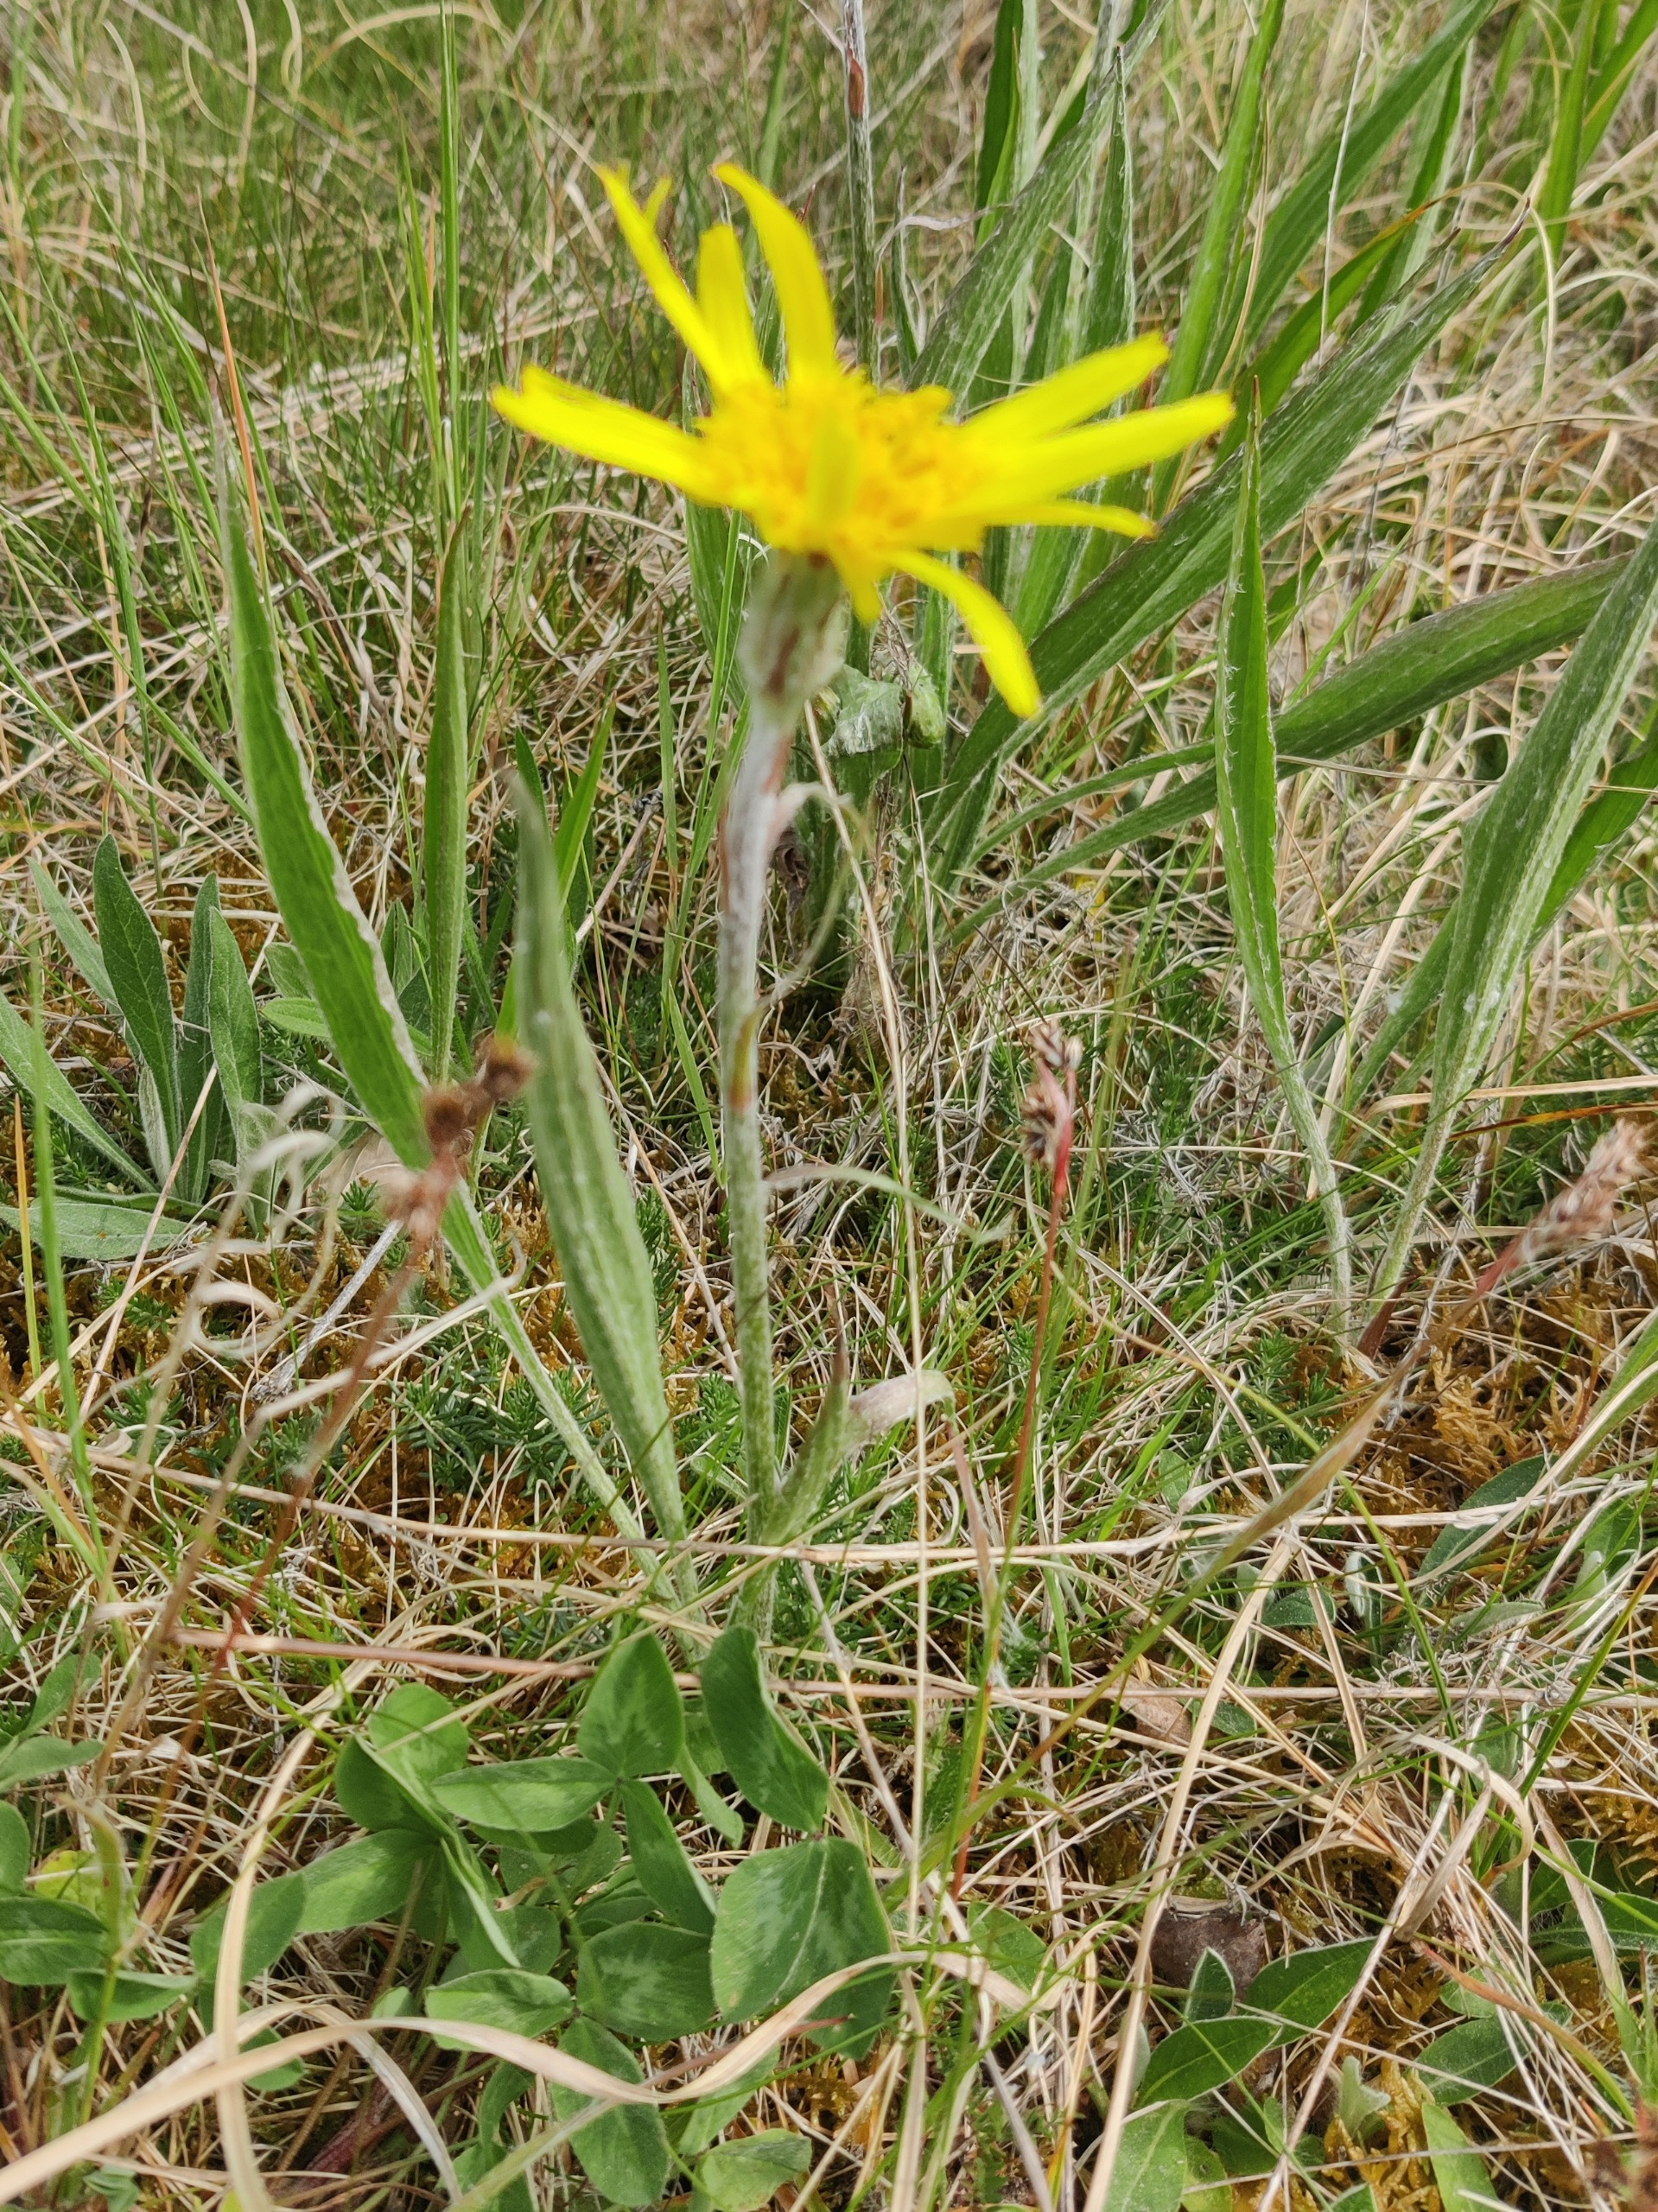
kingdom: Plantae
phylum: Tracheophyta
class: Magnoliopsida
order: Asterales
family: Asteraceae
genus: Scorzonera
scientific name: Scorzonera humilis
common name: Lav skorsoner
